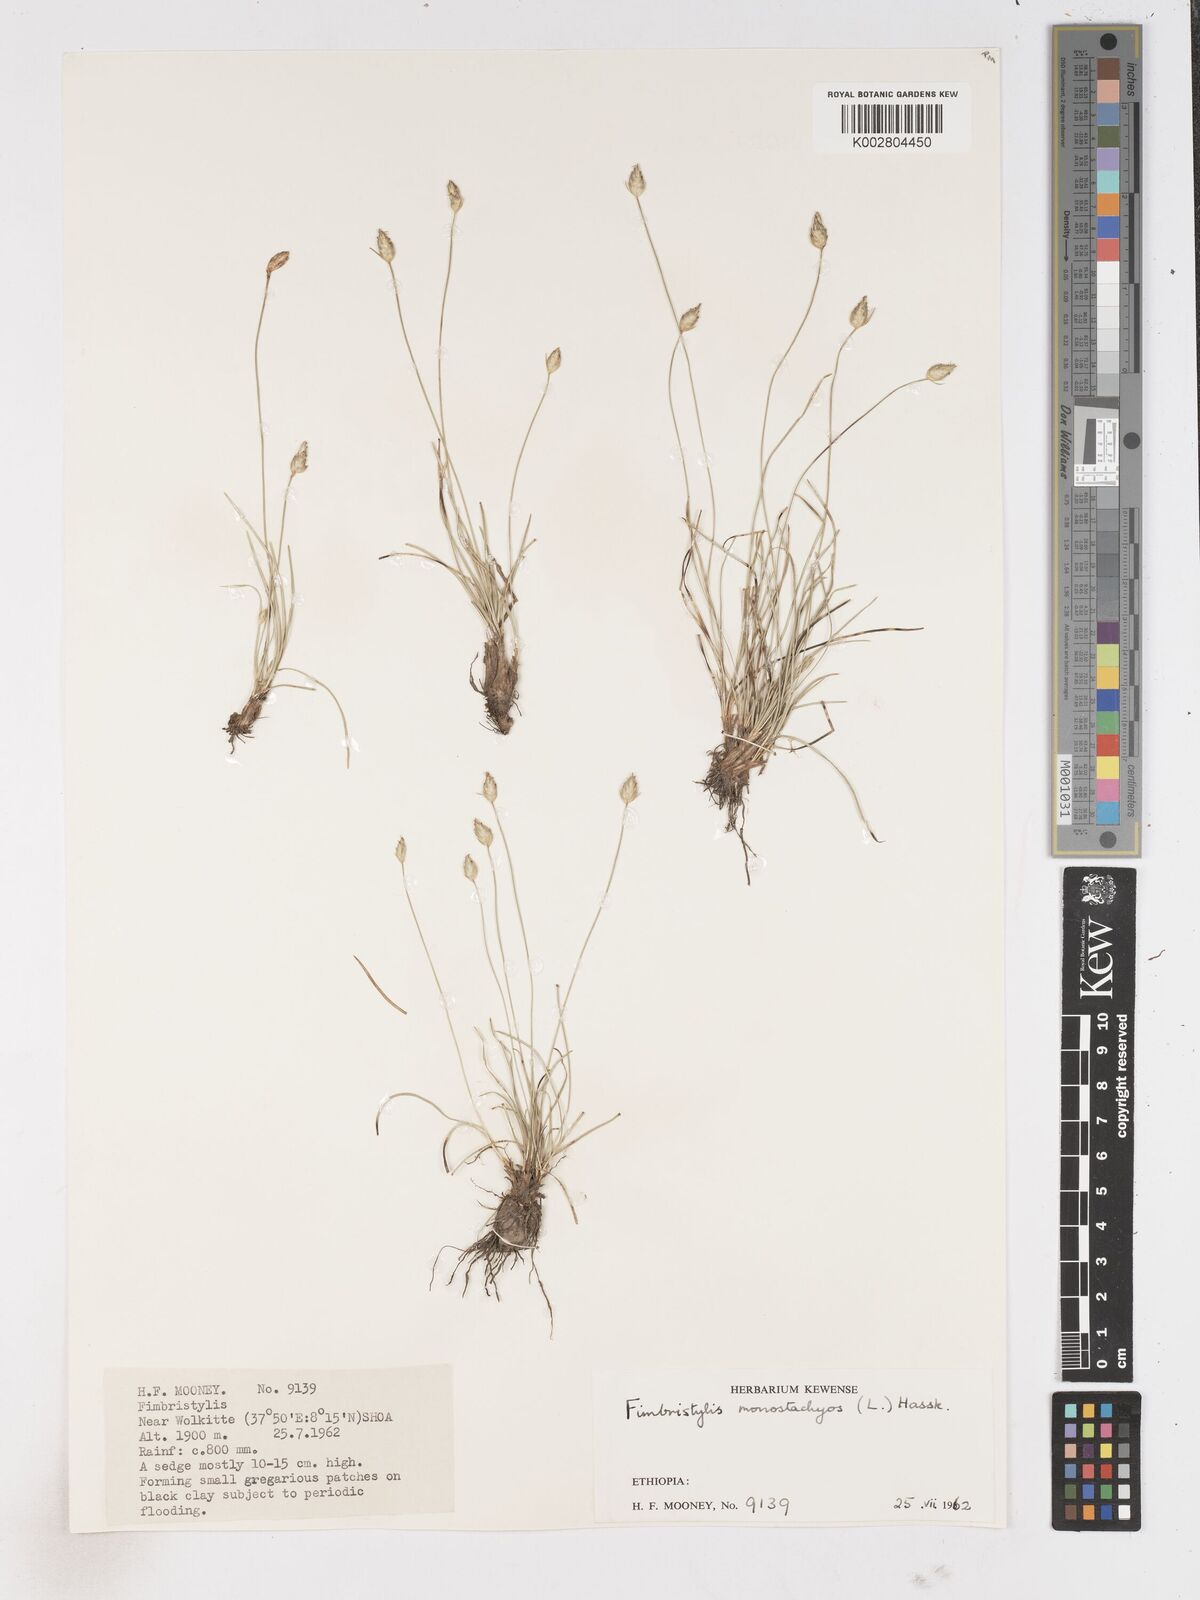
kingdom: Plantae
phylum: Tracheophyta
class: Liliopsida
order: Poales
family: Cyperaceae
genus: Abildgaardia
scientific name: Abildgaardia ovata
